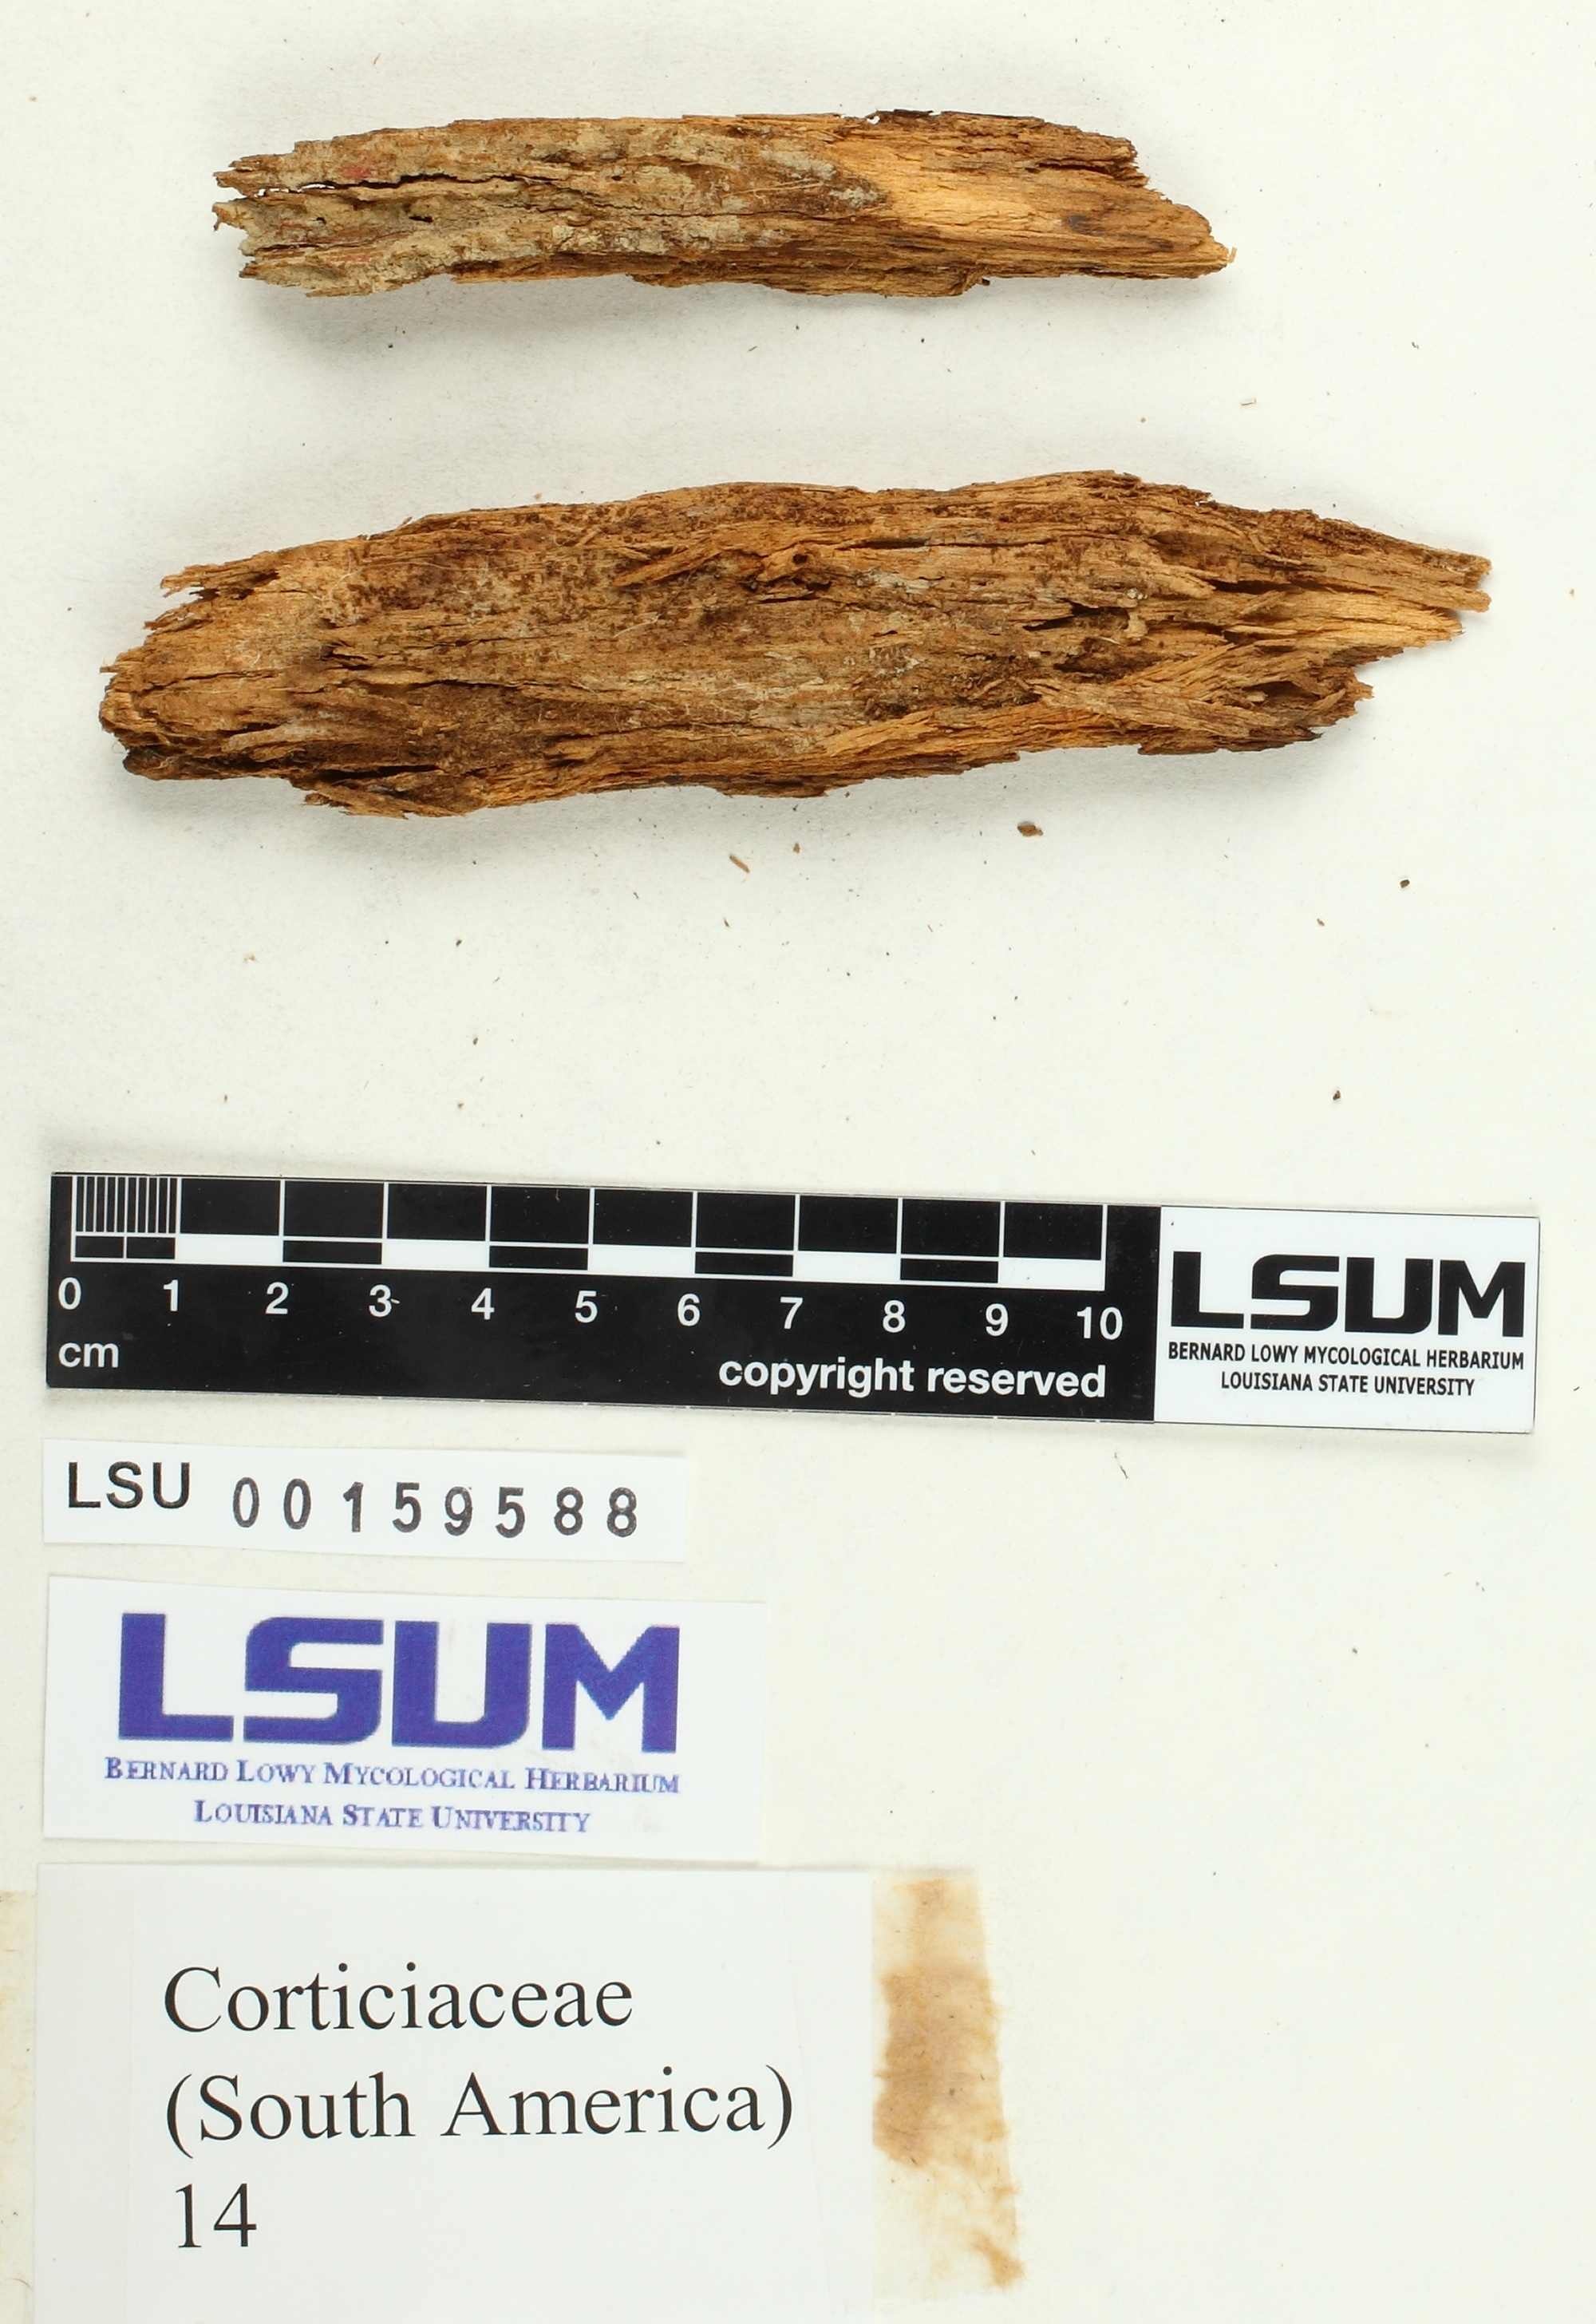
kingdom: Fungi
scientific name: Fungi
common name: Fungi
